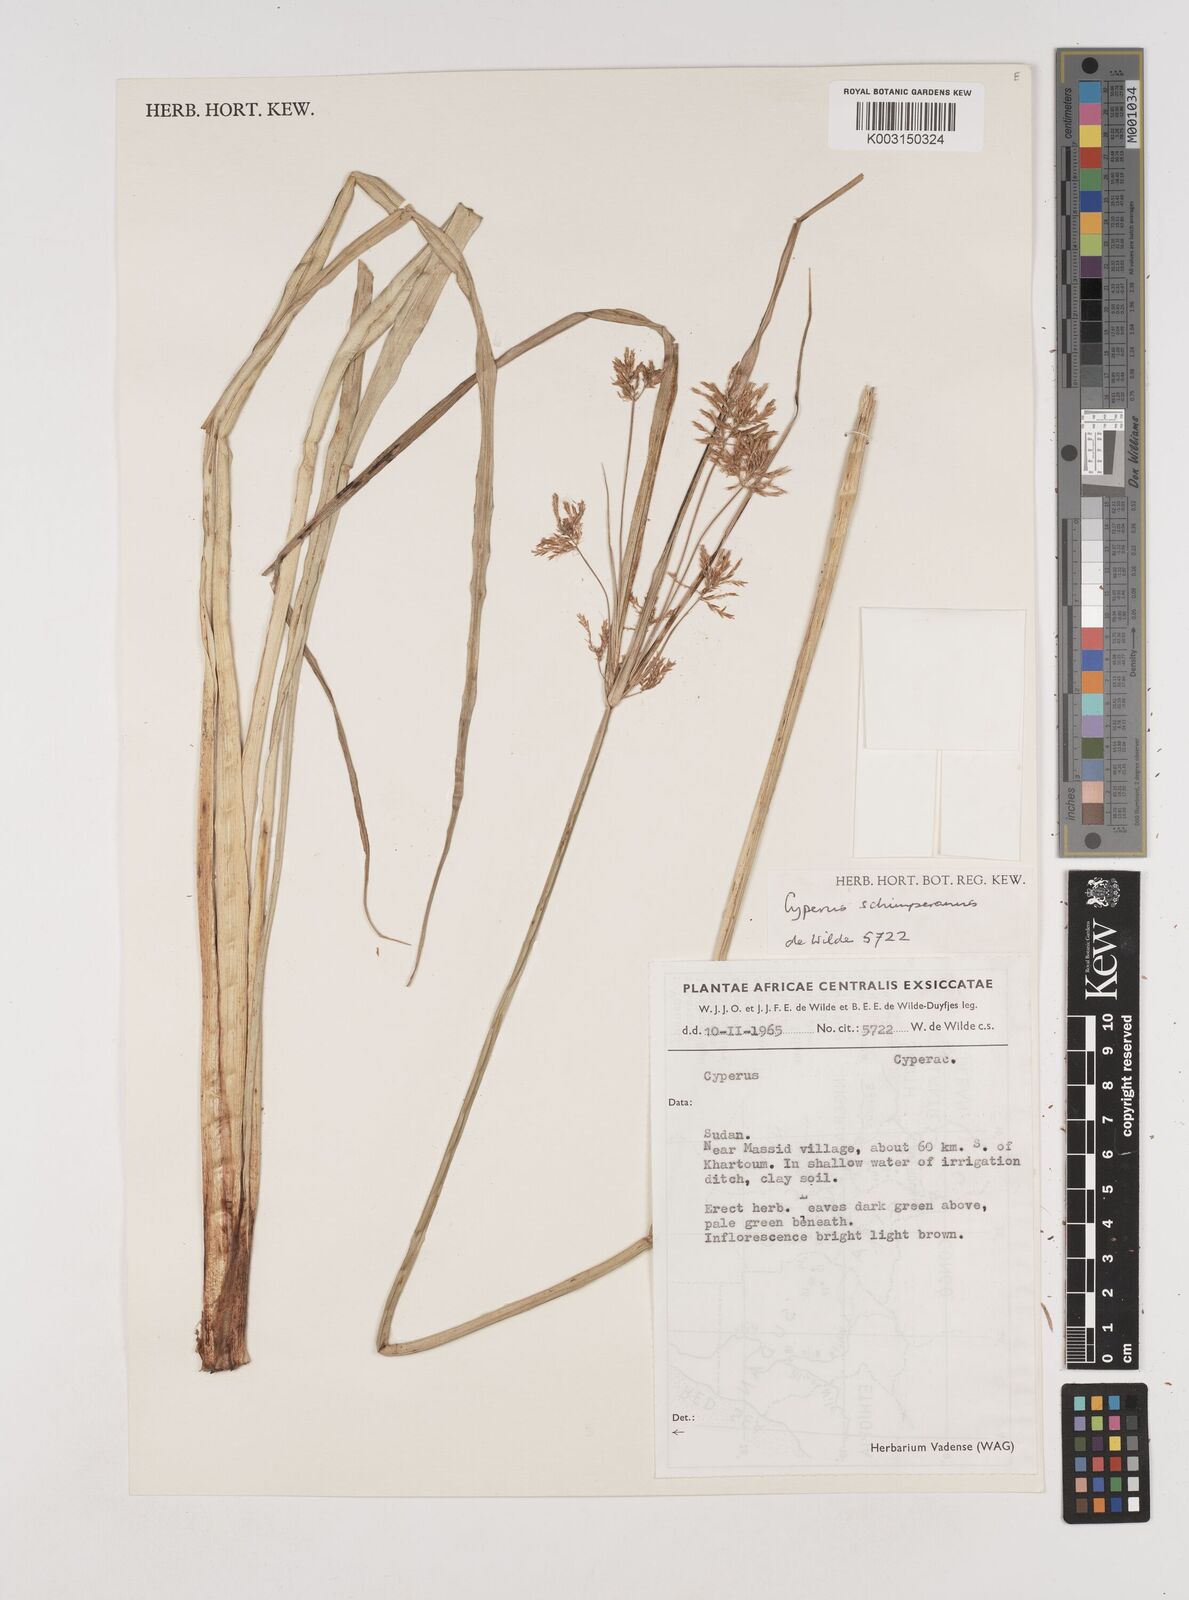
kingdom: Plantae
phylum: Tracheophyta
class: Liliopsida
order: Poales
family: Cyperaceae
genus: Cyperus
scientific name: Cyperus schimperianus
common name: Schimper flatsedge
